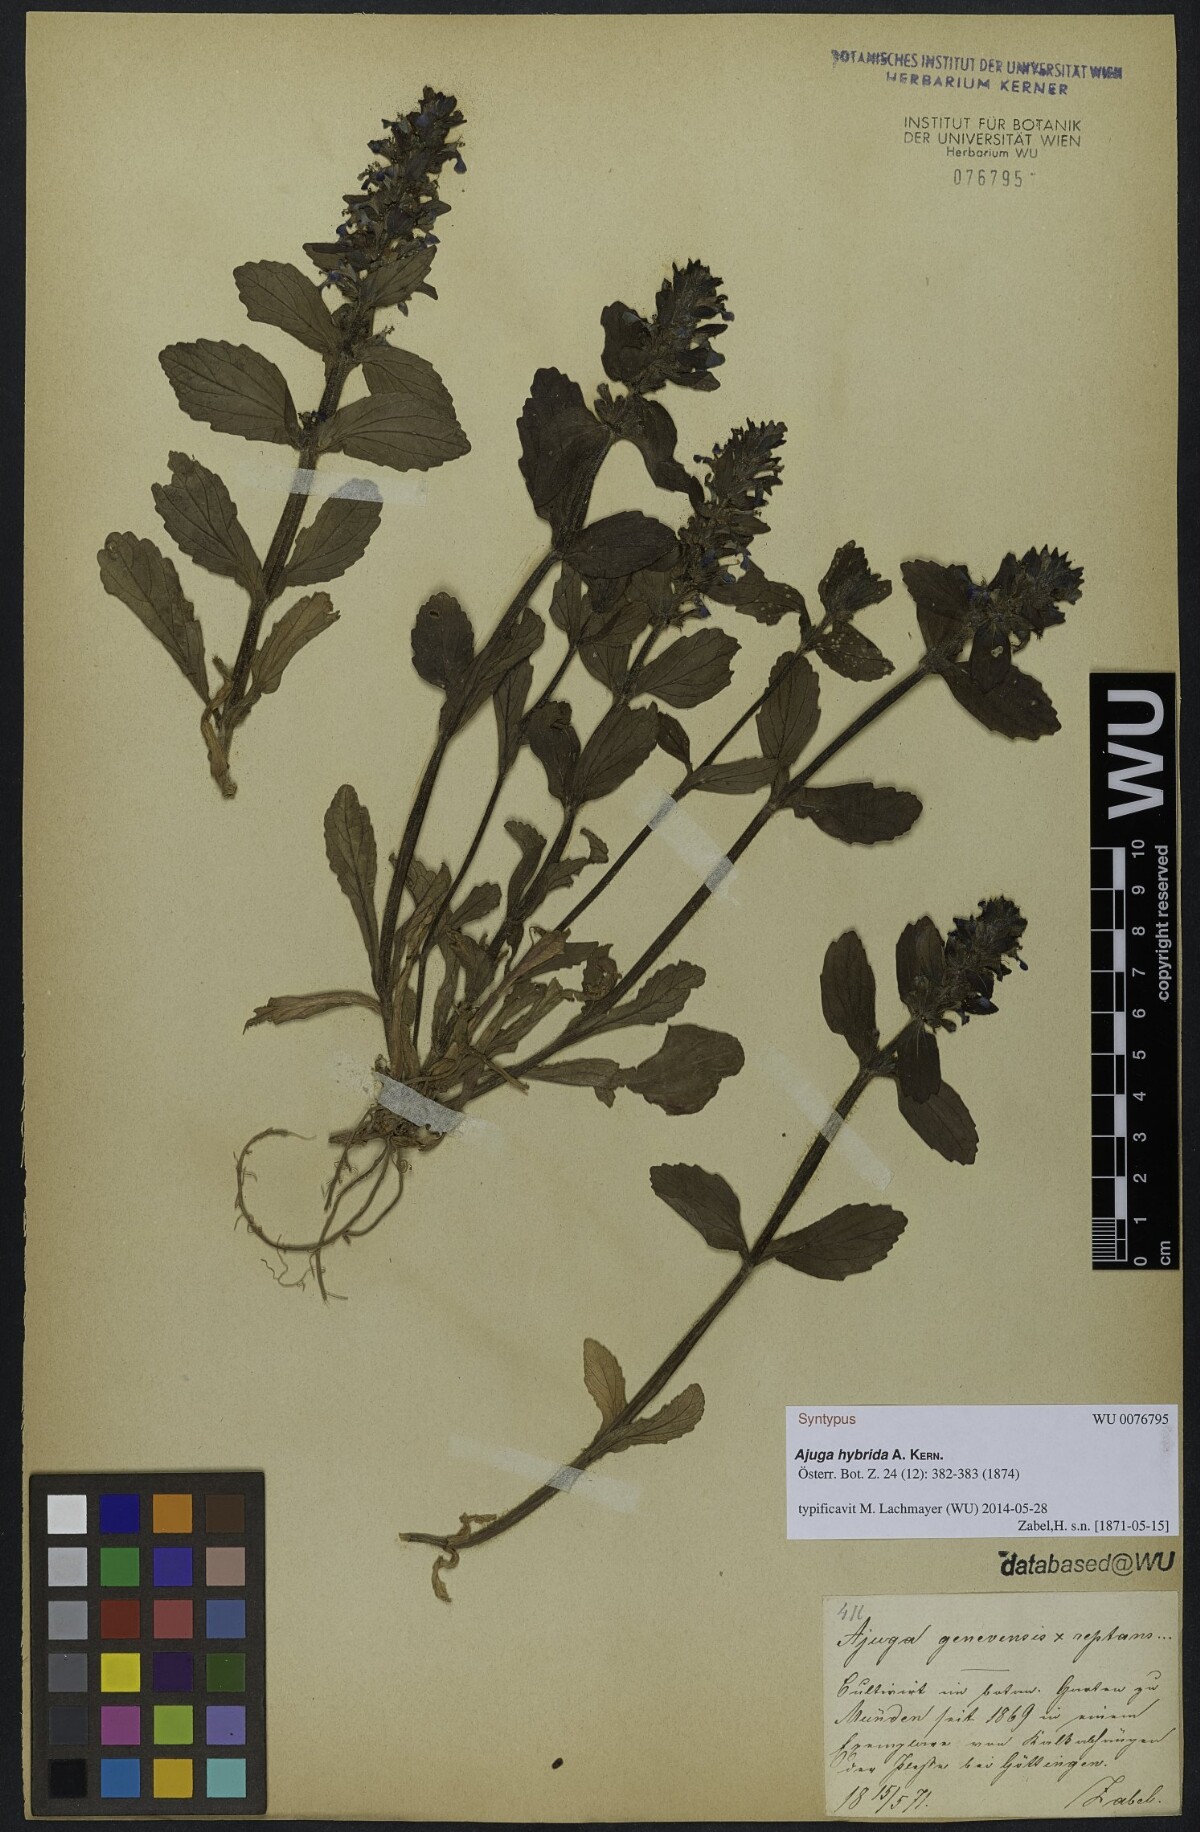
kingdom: Plantae
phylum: Tracheophyta
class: Magnoliopsida
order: Lamiales
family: Lamiaceae
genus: Ajuga
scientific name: Ajuga hybrida
